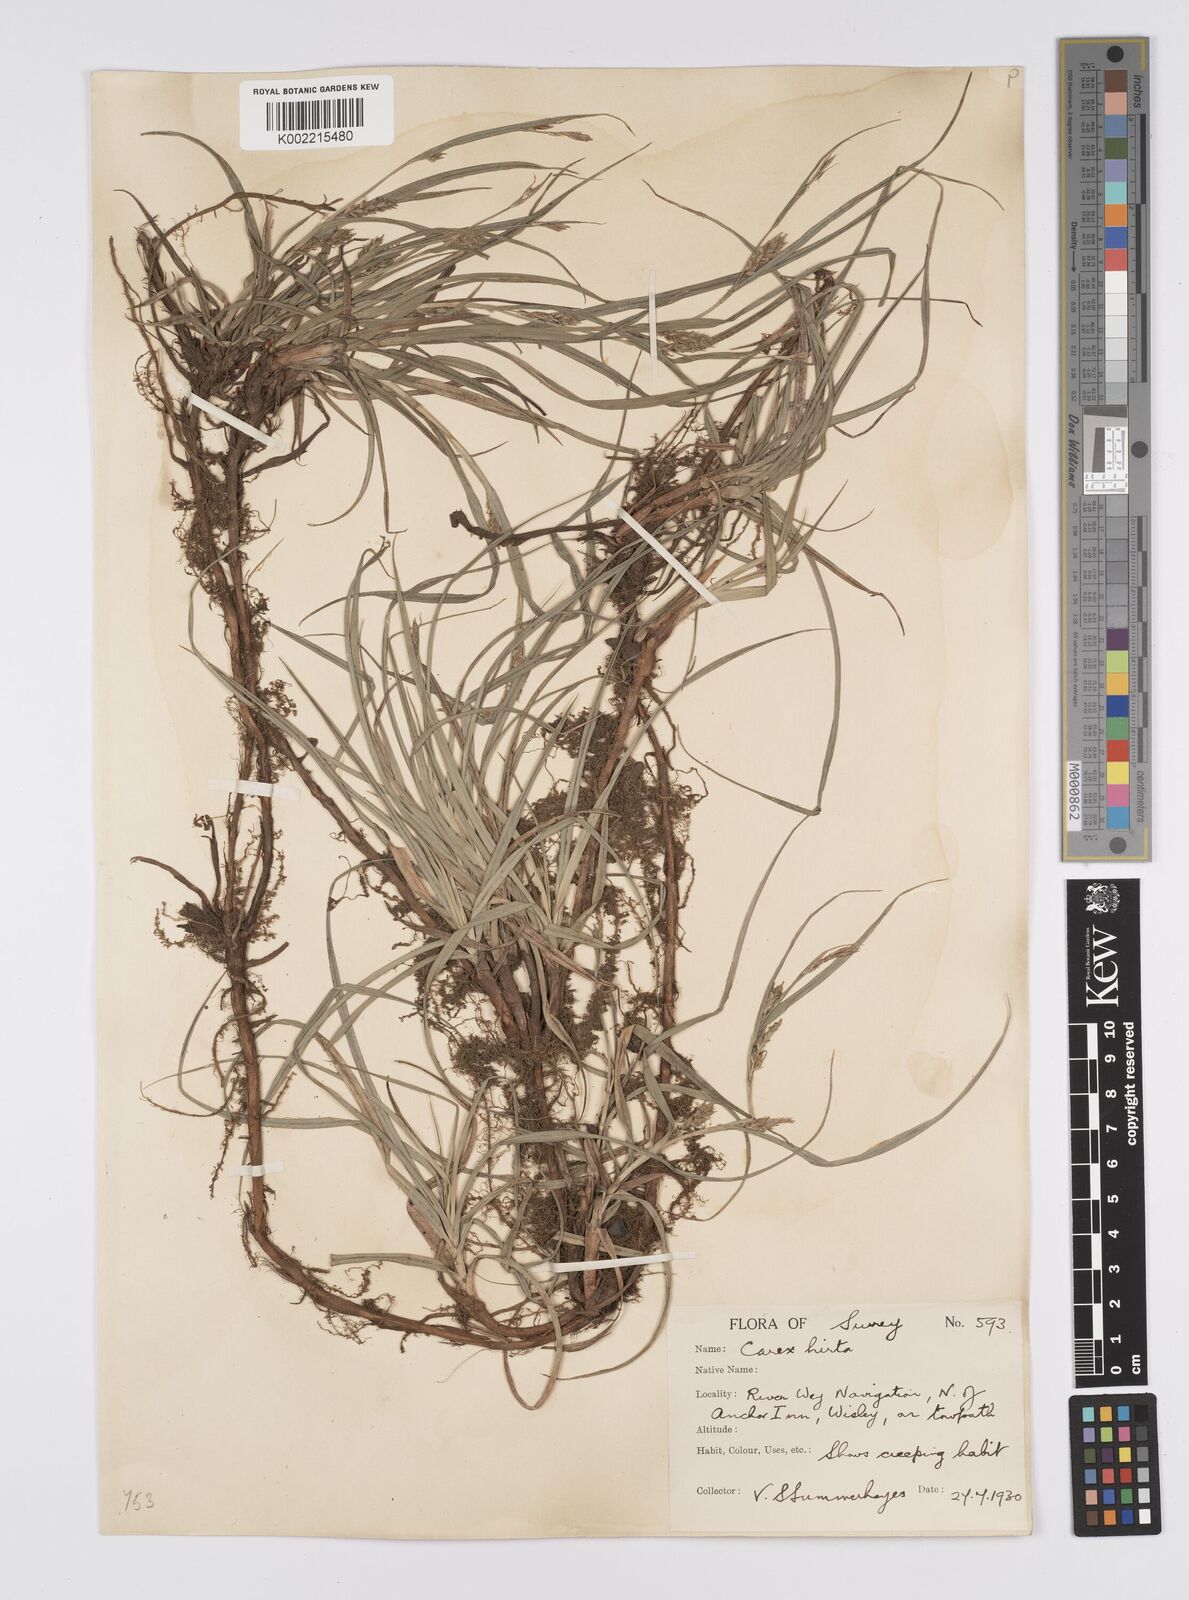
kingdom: Plantae
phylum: Tracheophyta
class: Liliopsida
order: Poales
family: Cyperaceae
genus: Carex
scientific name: Carex hirta
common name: Hairy sedge
